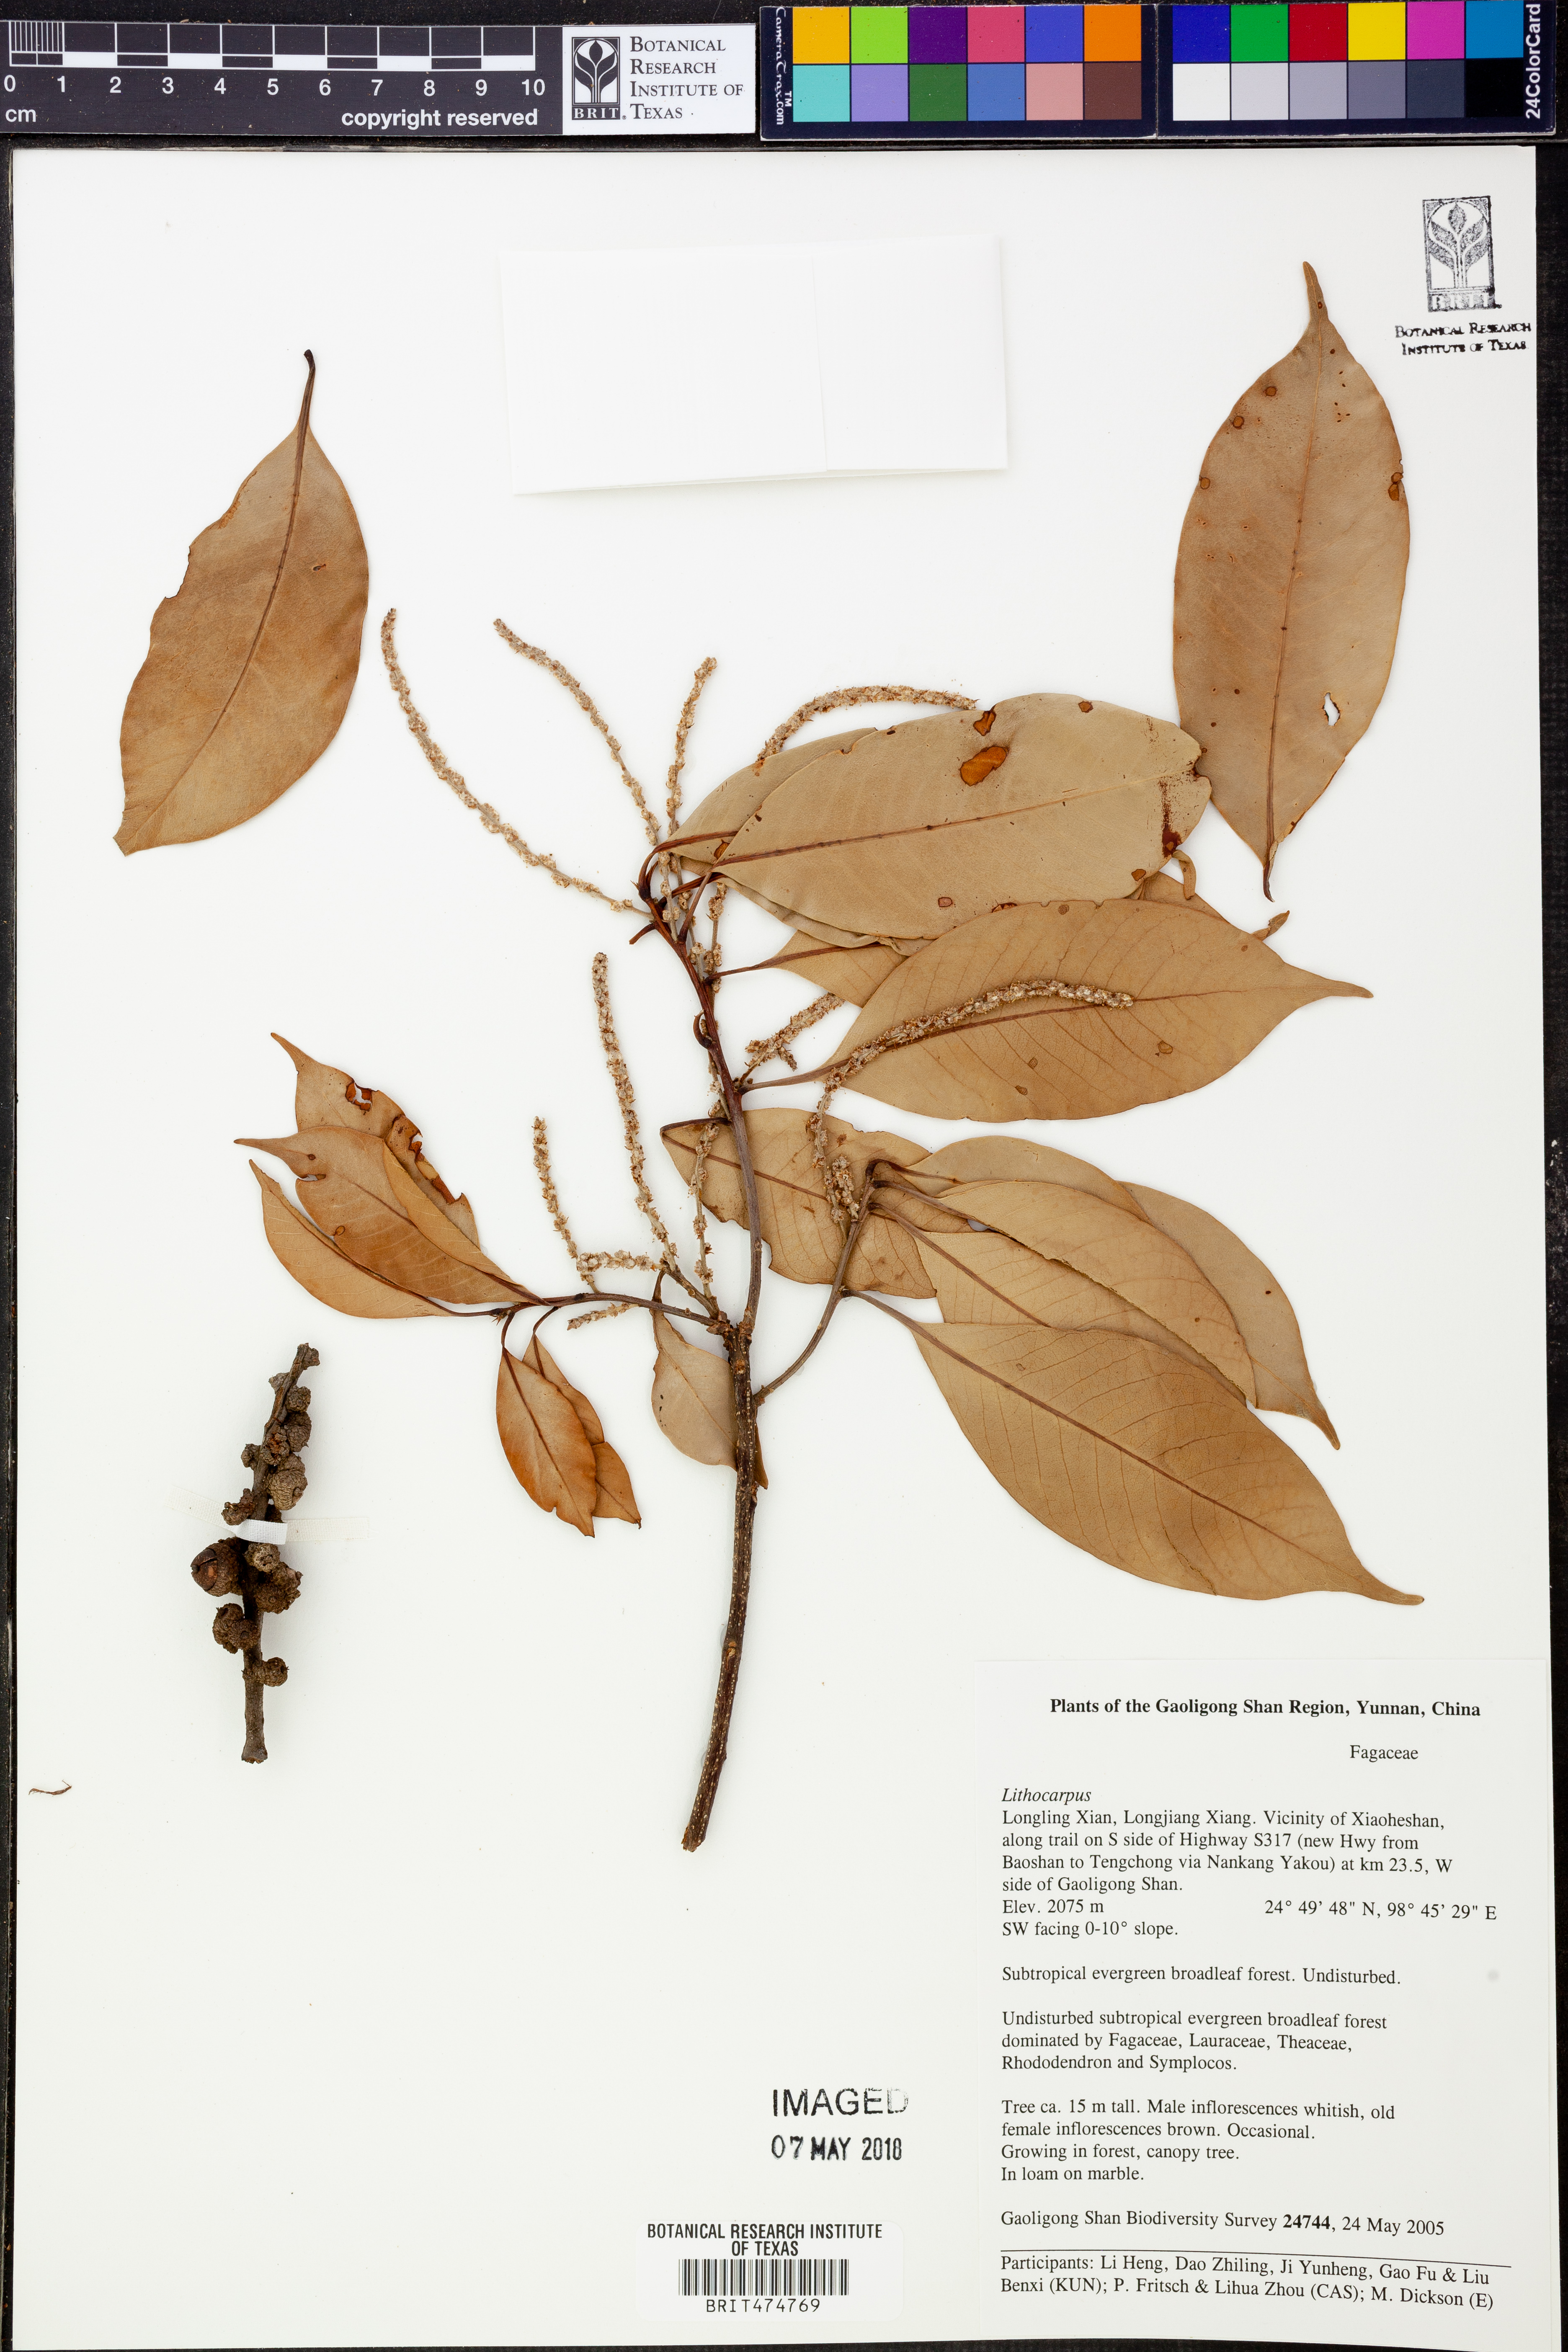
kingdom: Plantae
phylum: Tracheophyta
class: Magnoliopsida
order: Fagales
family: Fagaceae
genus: Lithocarpus
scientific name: Lithocarpus
